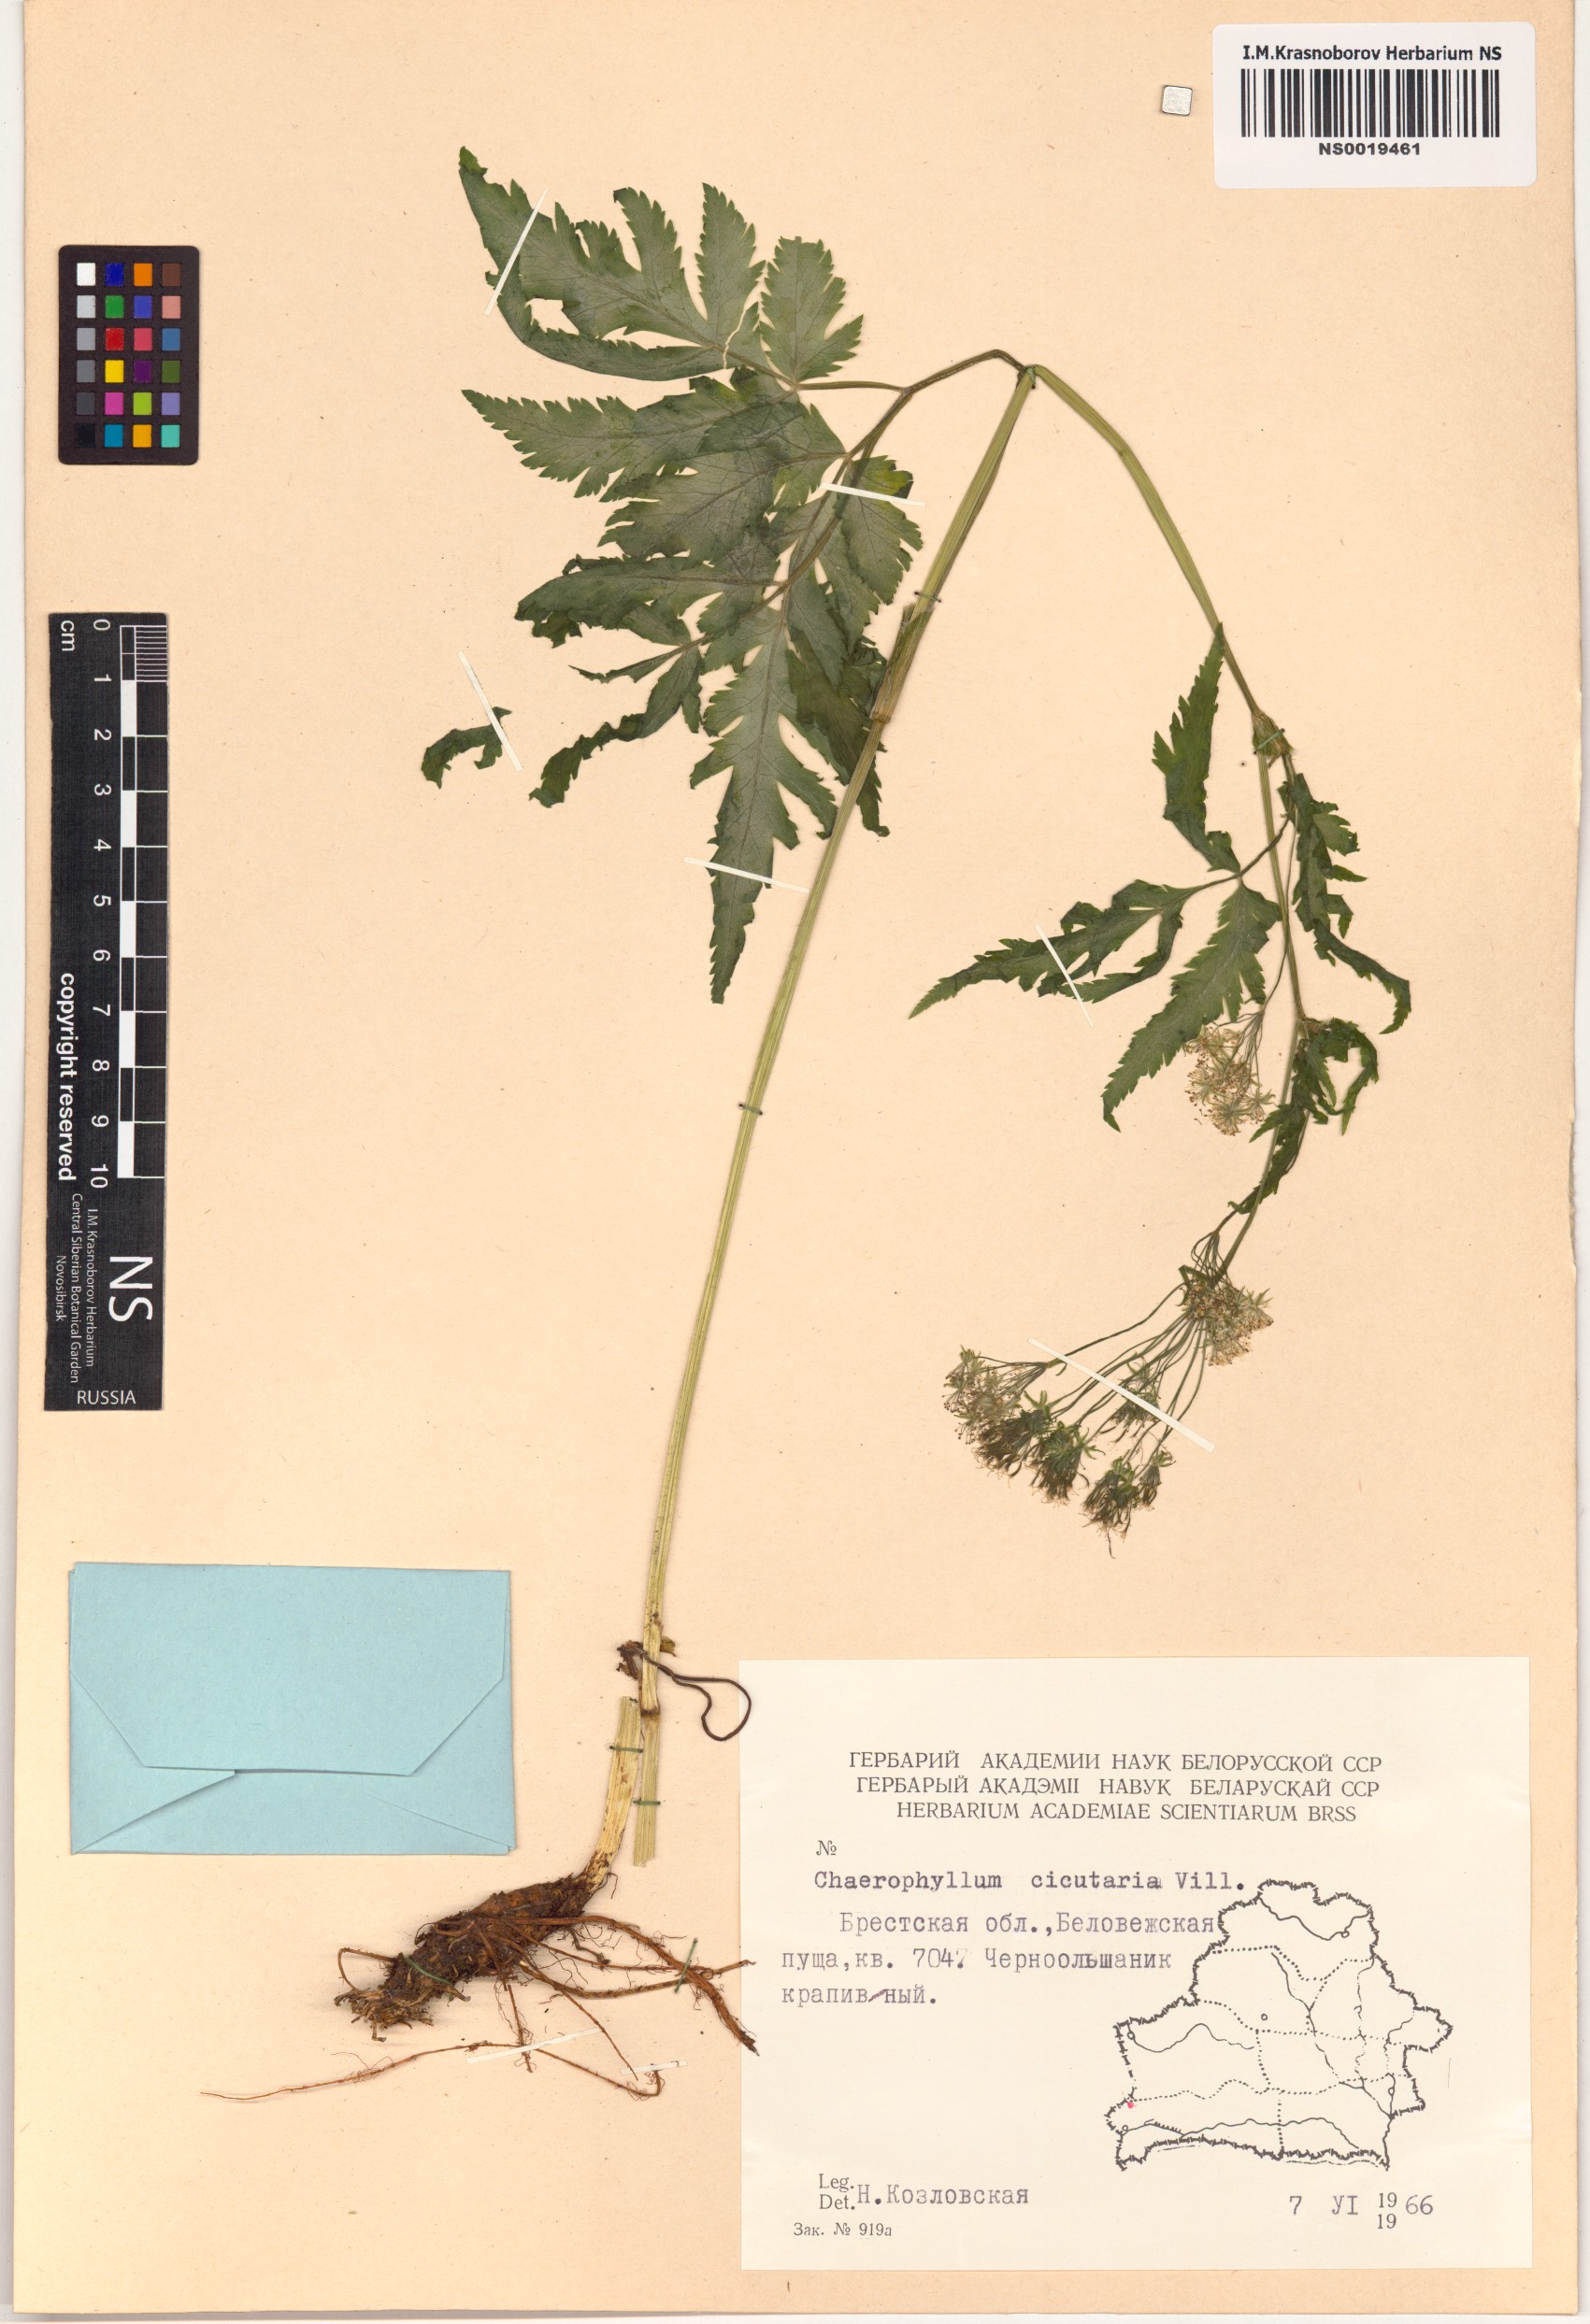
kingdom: Plantae
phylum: Tracheophyta
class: Magnoliopsida
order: Apiales
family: Apiaceae
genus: Chaerophyllum
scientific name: Chaerophyllum hirsutum
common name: Hairy chervil
